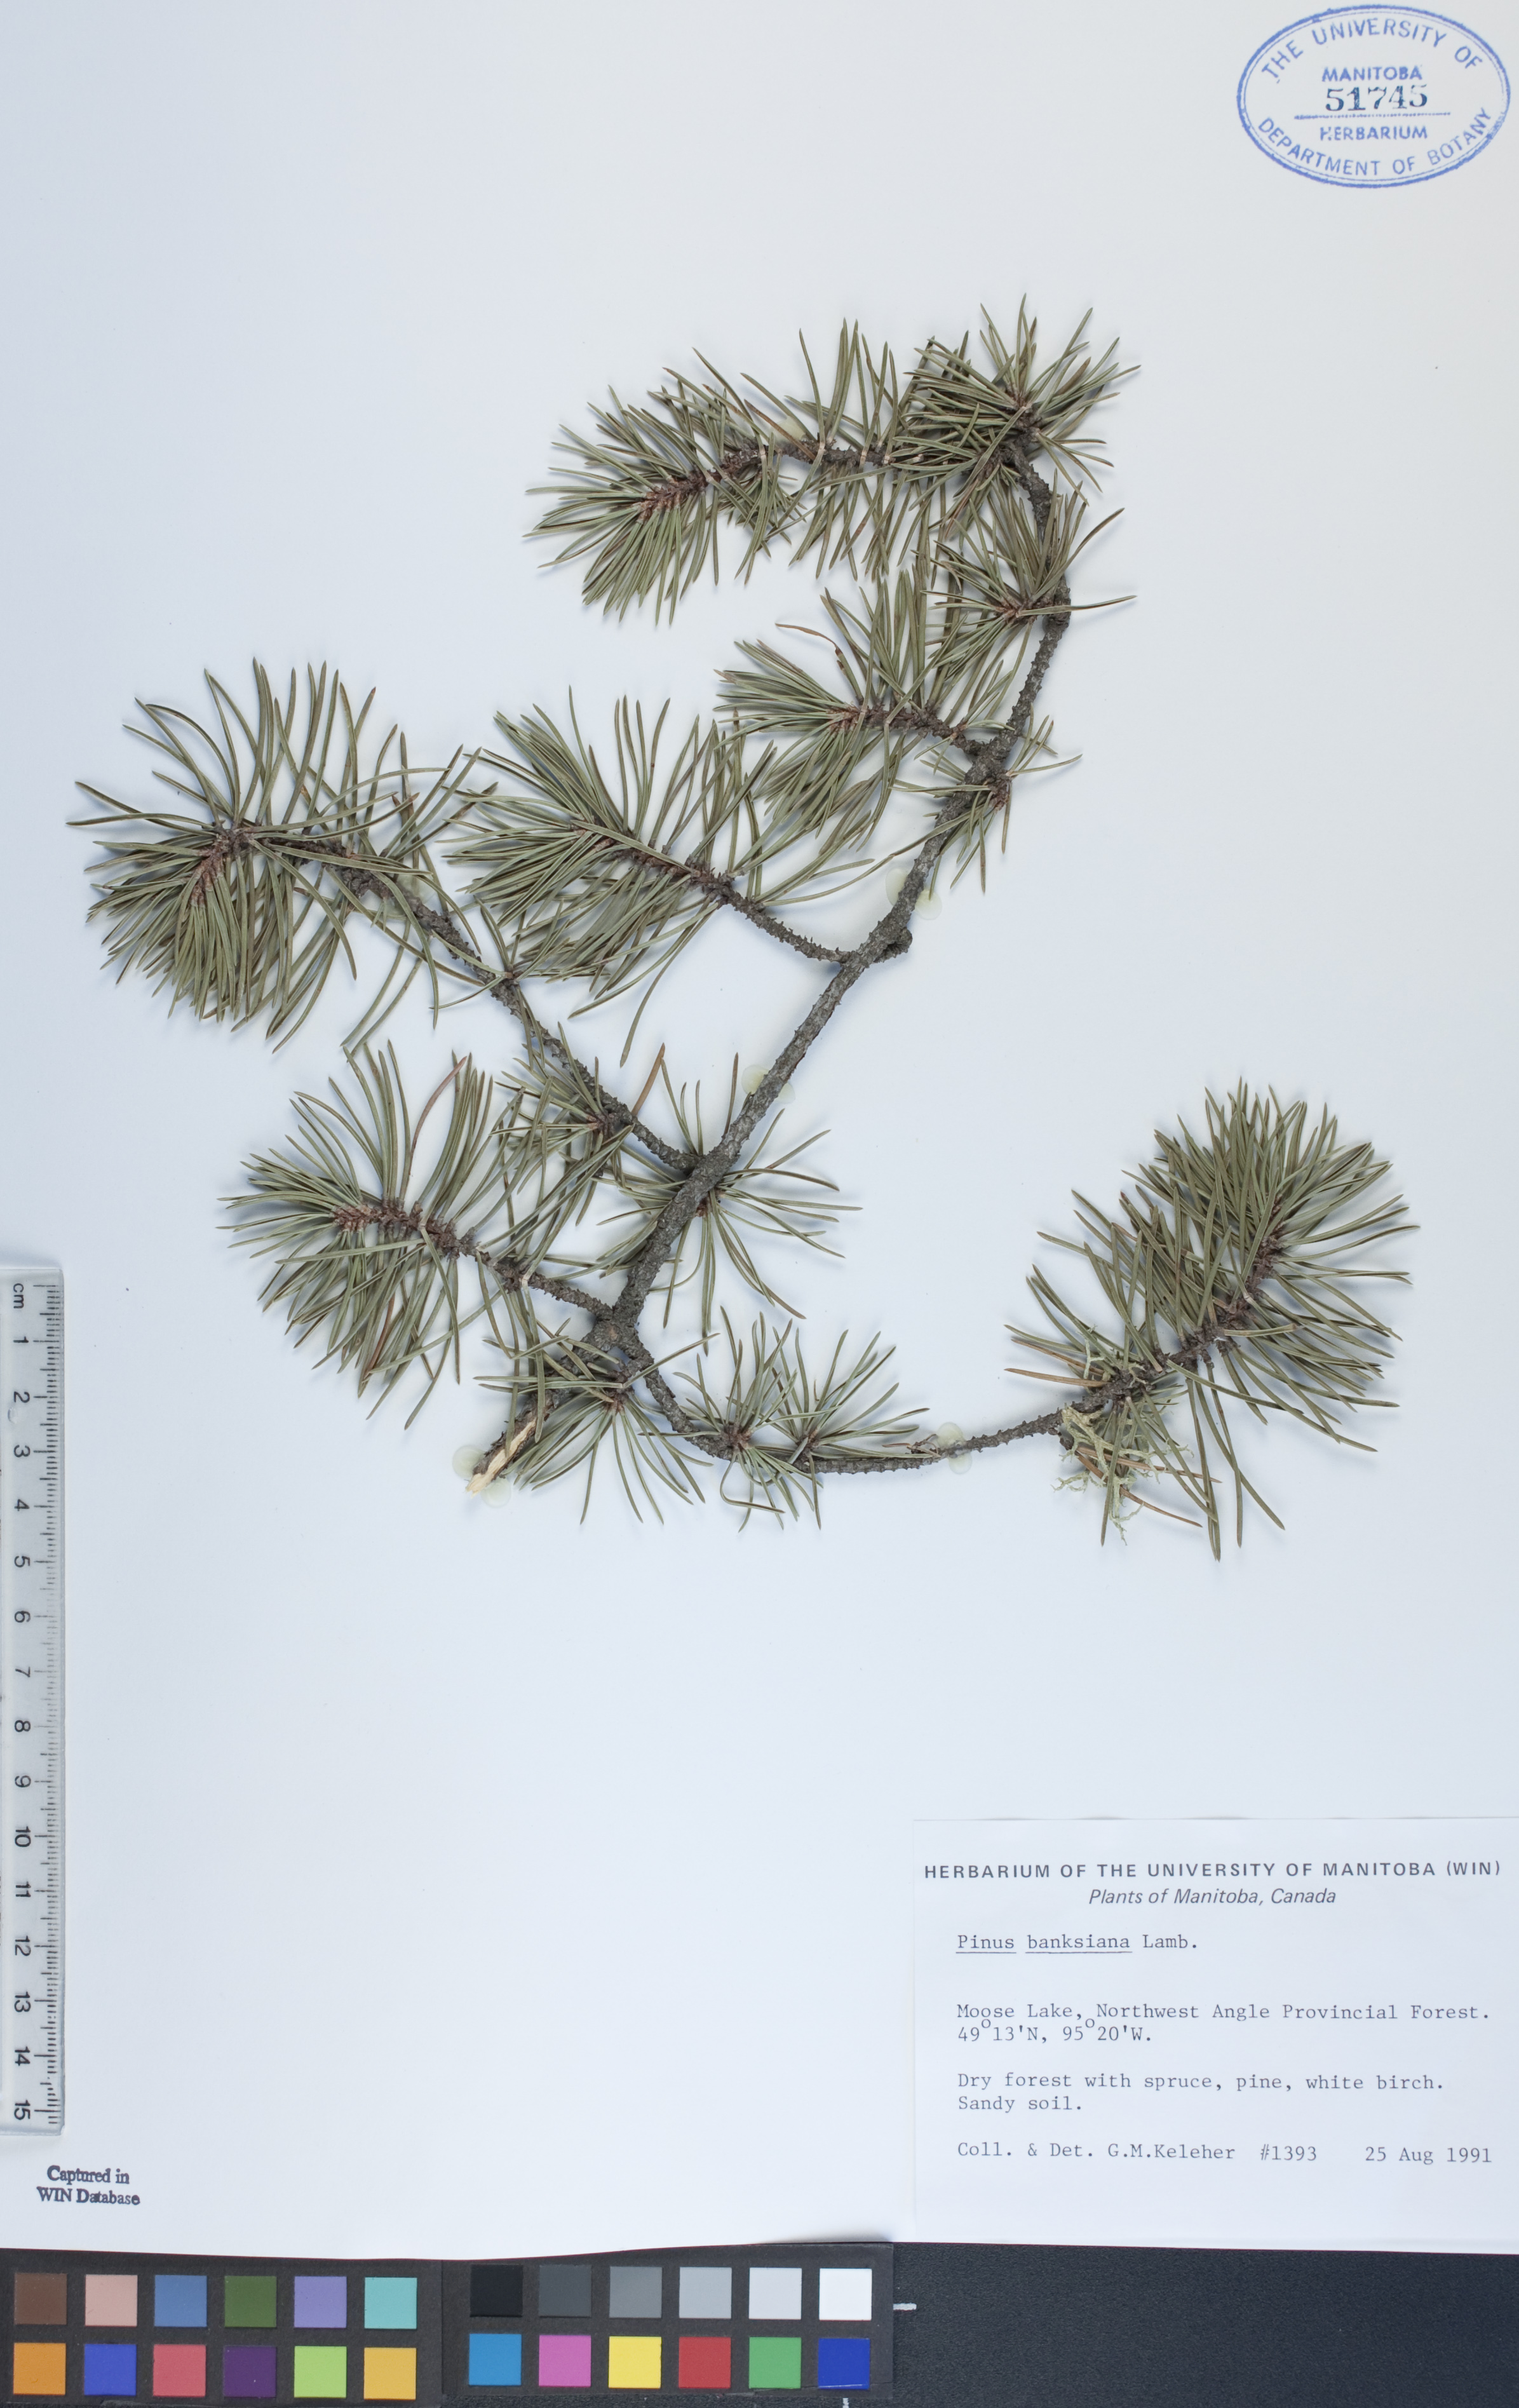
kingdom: Plantae
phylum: Tracheophyta
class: Pinopsida
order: Pinales
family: Pinaceae
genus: Pinus
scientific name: Pinus banksiana
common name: Jack pine
